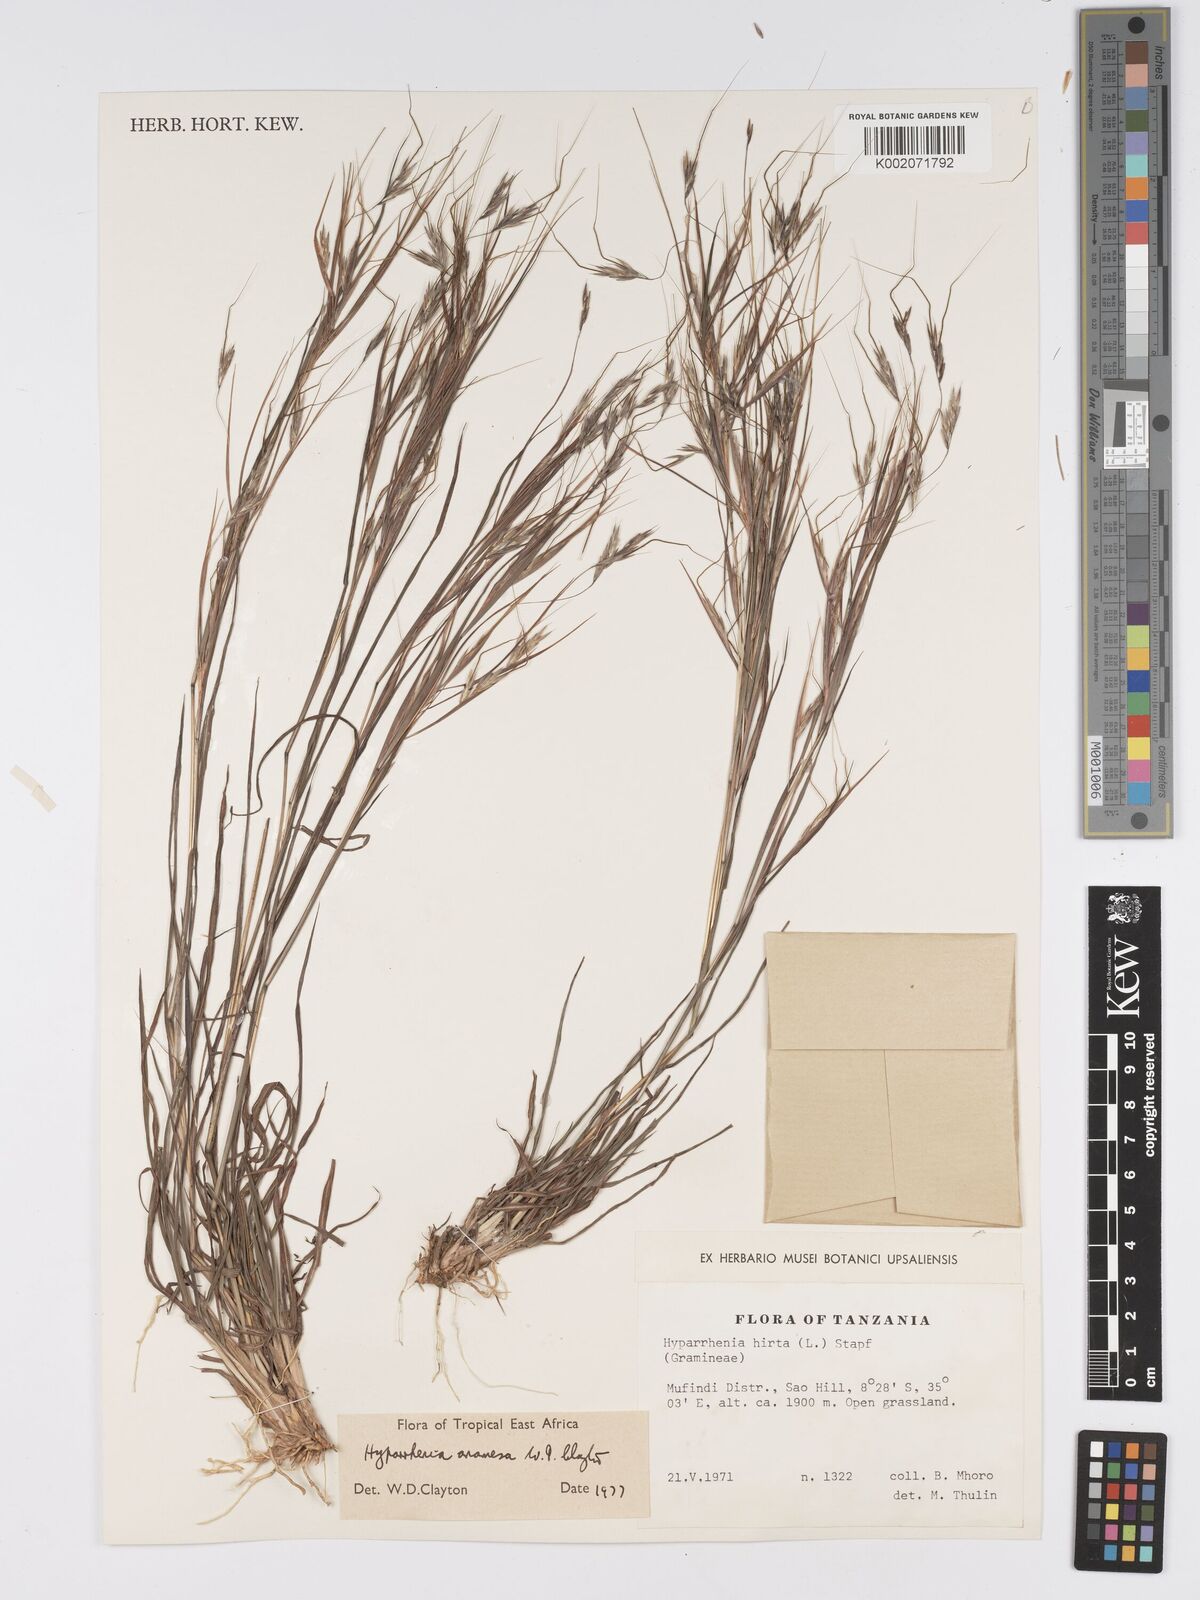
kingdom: Plantae
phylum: Tracheophyta
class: Liliopsida
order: Poales
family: Poaceae
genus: Hyparrhenia
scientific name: Hyparrhenia anamesa
